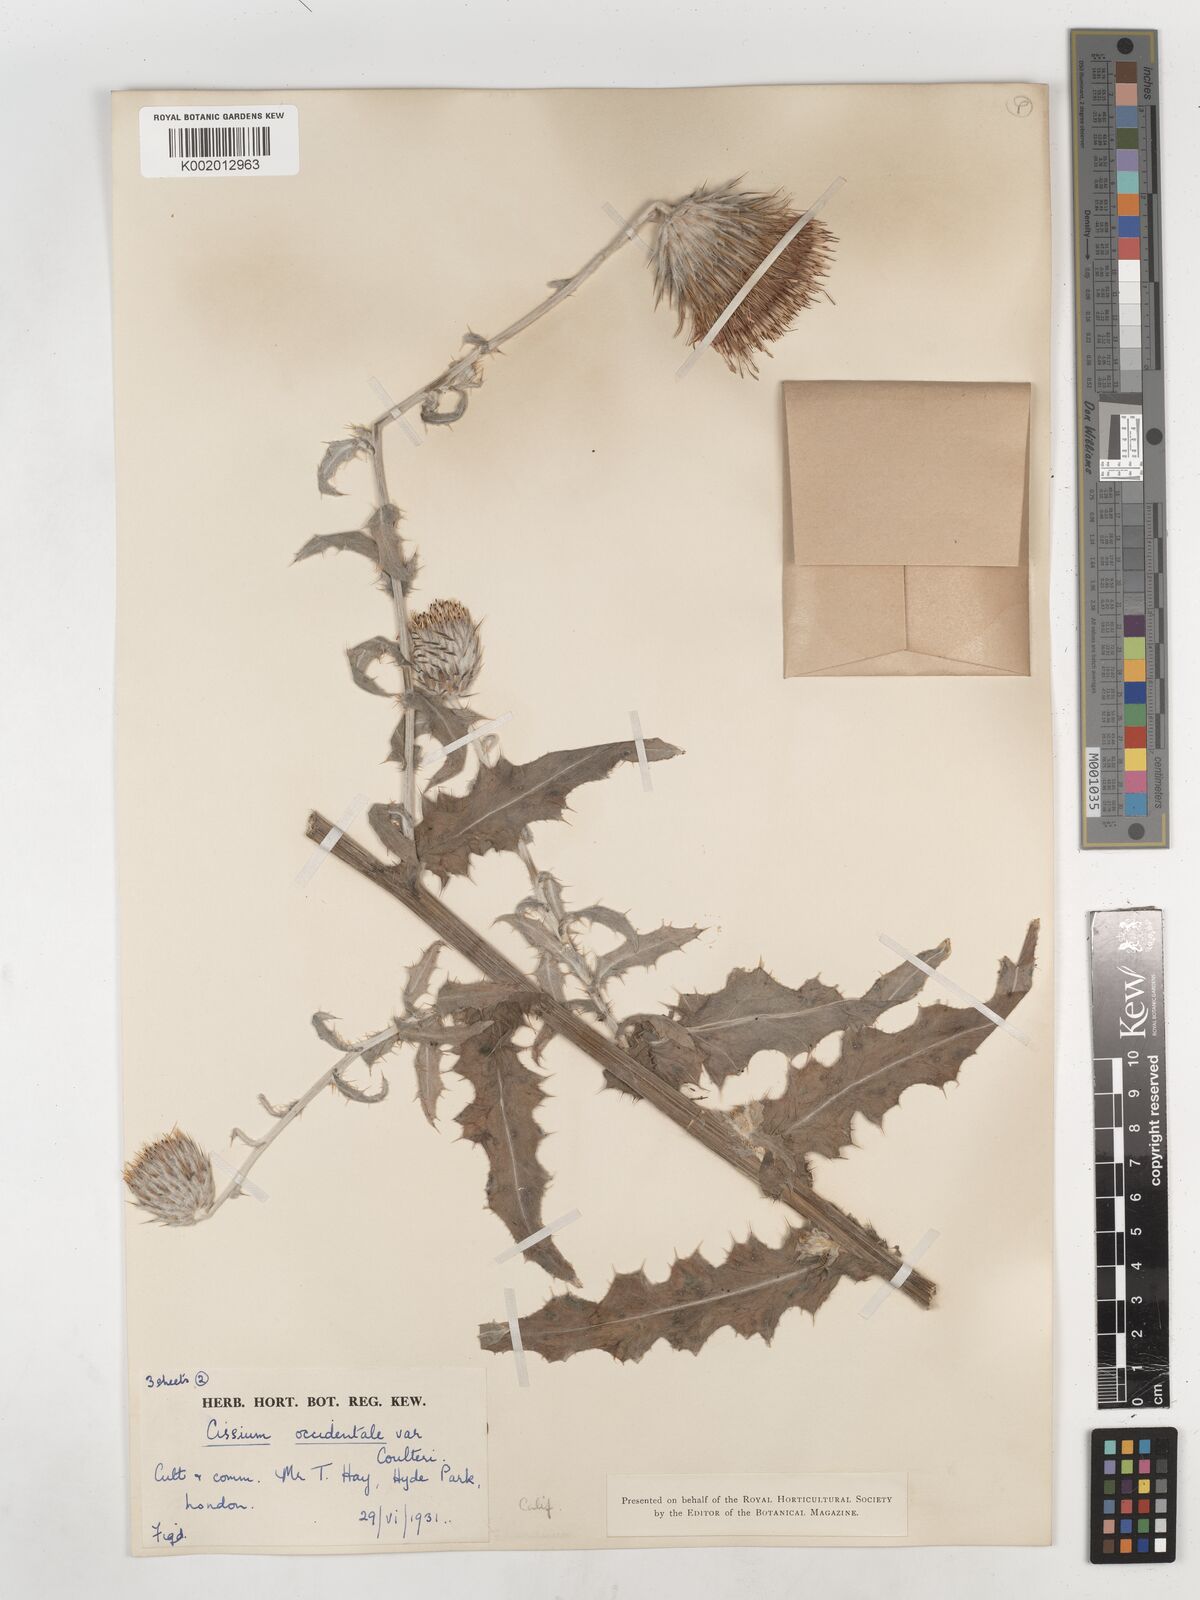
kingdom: Plantae
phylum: Tracheophyta
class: Magnoliopsida
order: Asterales
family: Asteraceae
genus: Cirsium
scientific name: Cirsium occidentale
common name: Western thistle
